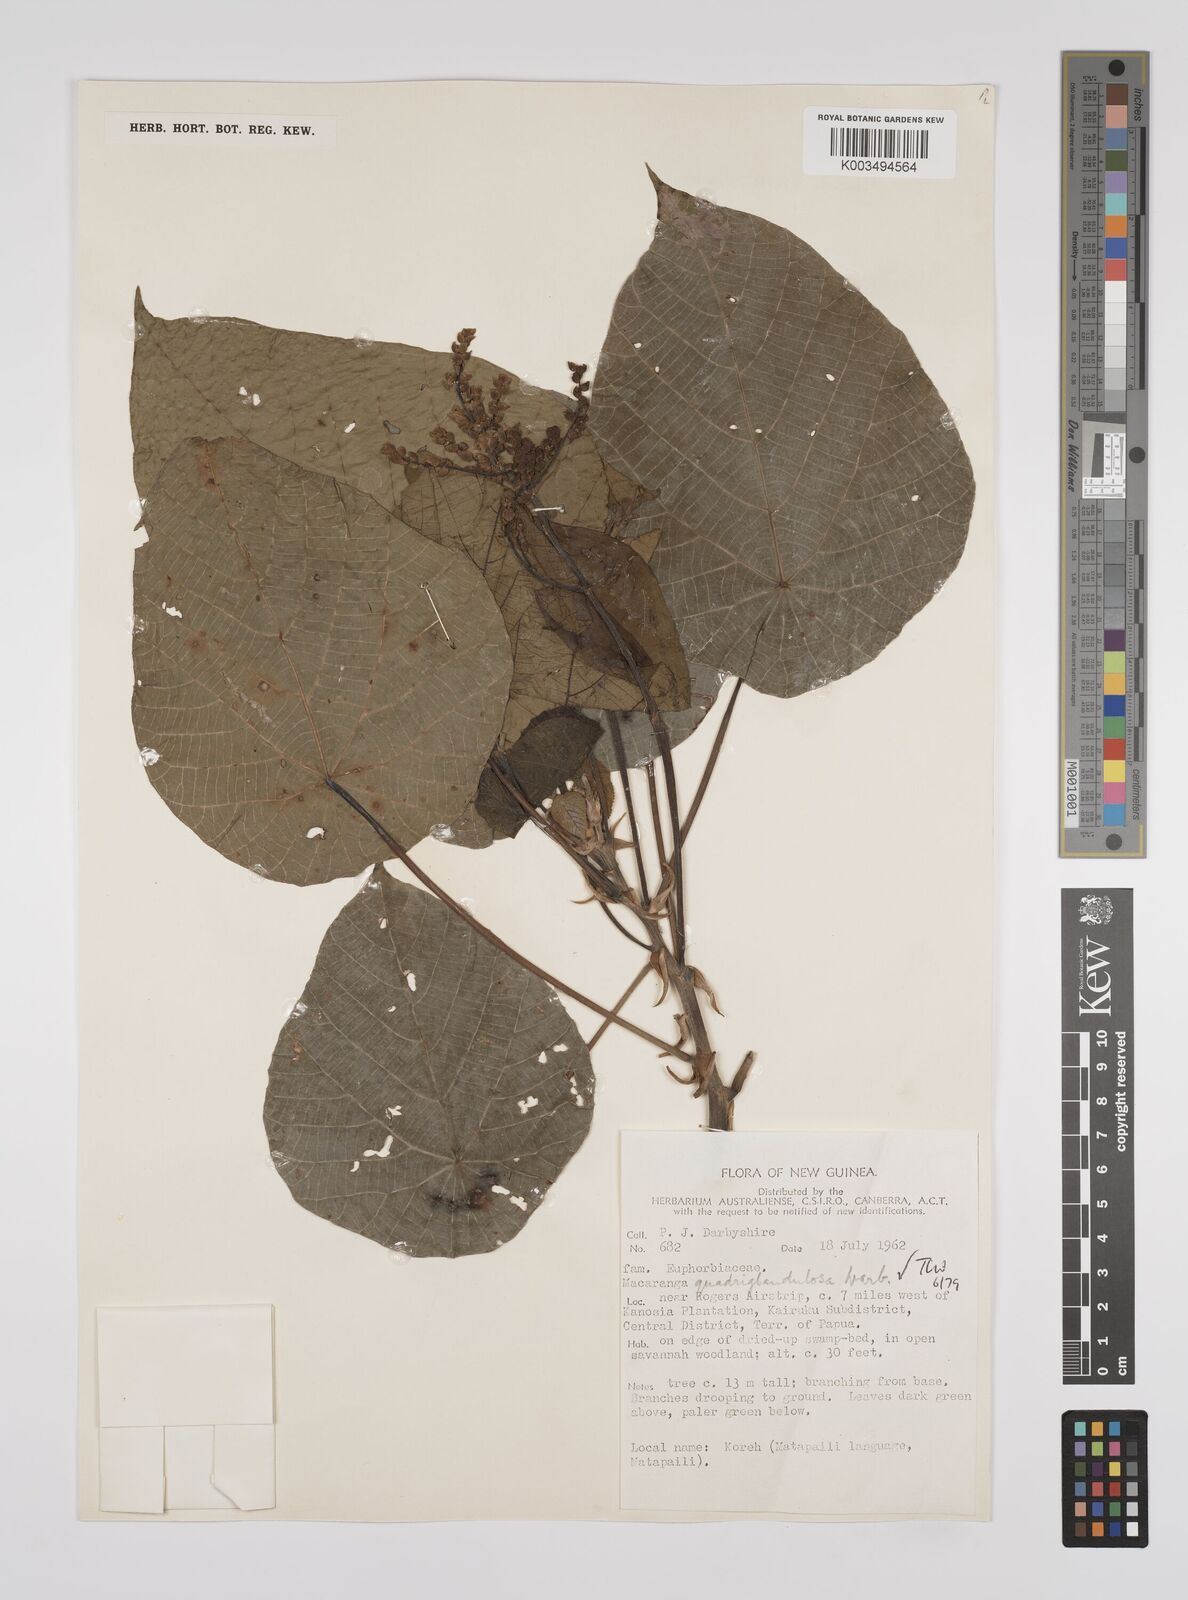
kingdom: Plantae
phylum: Tracheophyta
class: Magnoliopsida
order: Malpighiales
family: Euphorbiaceae
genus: Macaranga
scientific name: Macaranga quadriglandulosa
